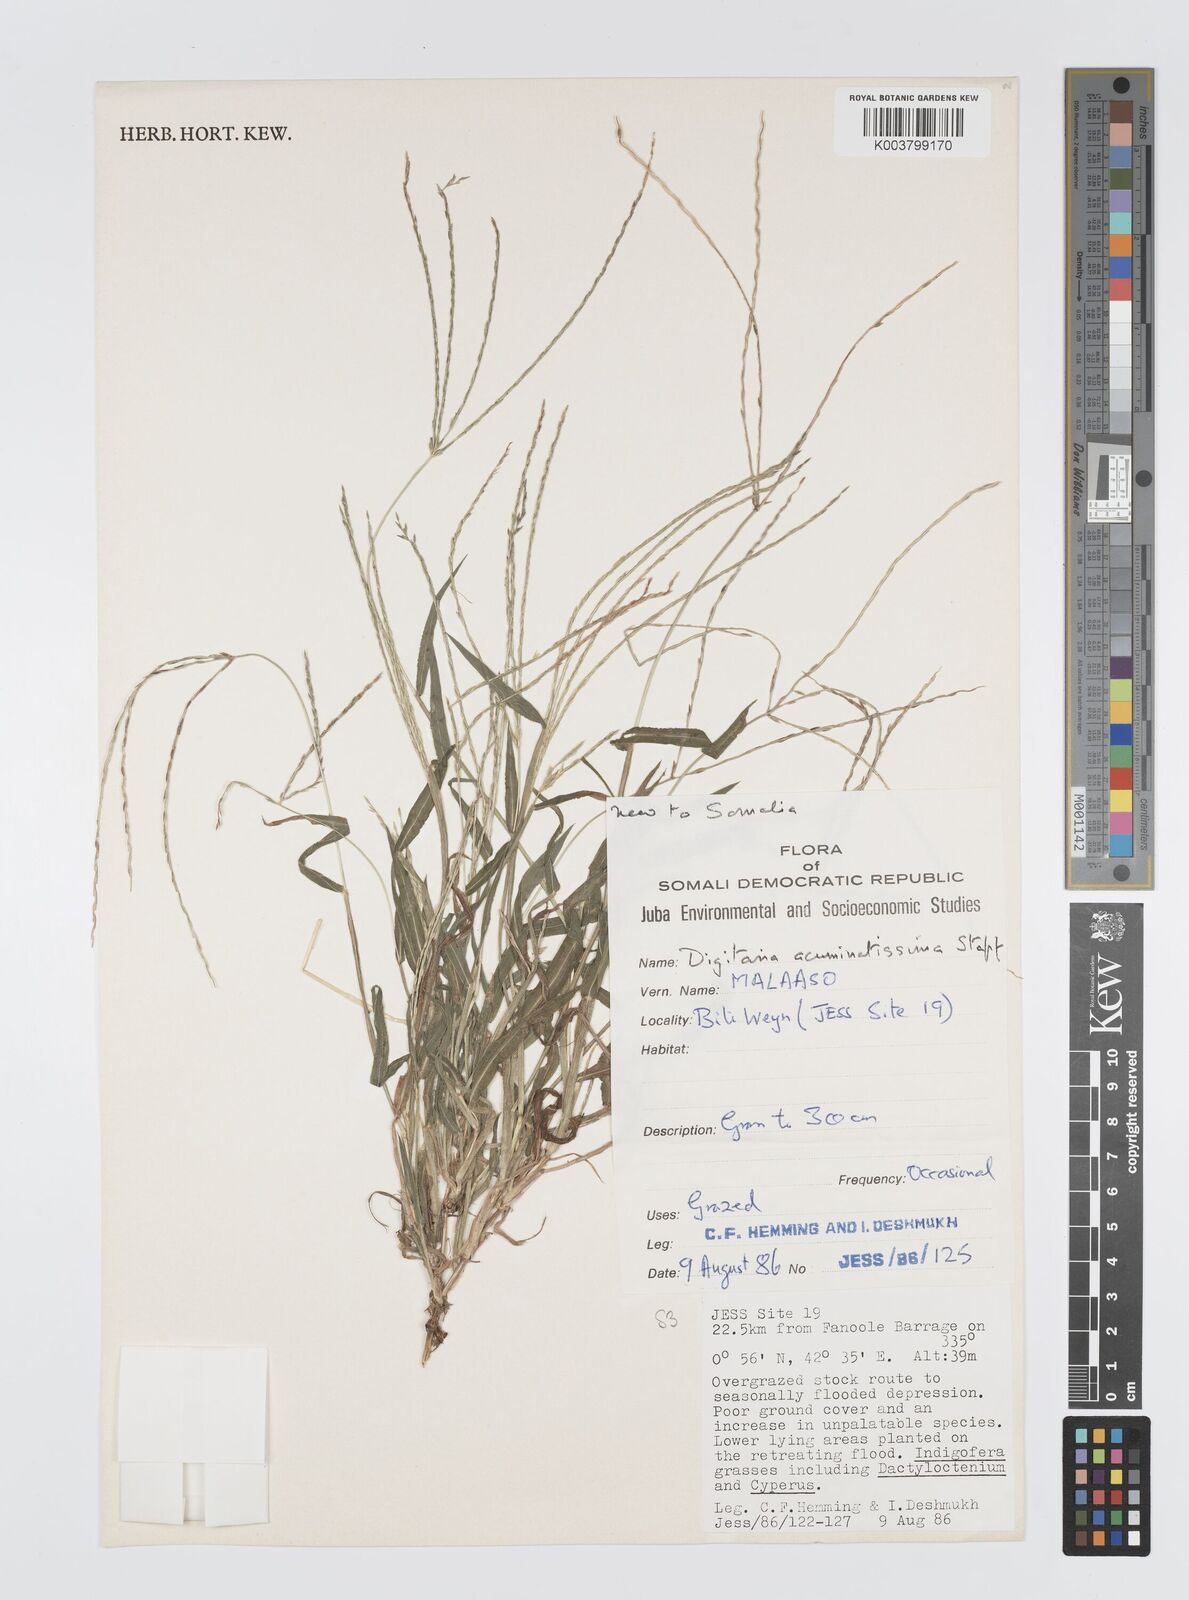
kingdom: Plantae
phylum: Tracheophyta
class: Liliopsida
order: Poales
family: Poaceae
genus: Digitaria
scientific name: Digitaria acuminatissima
